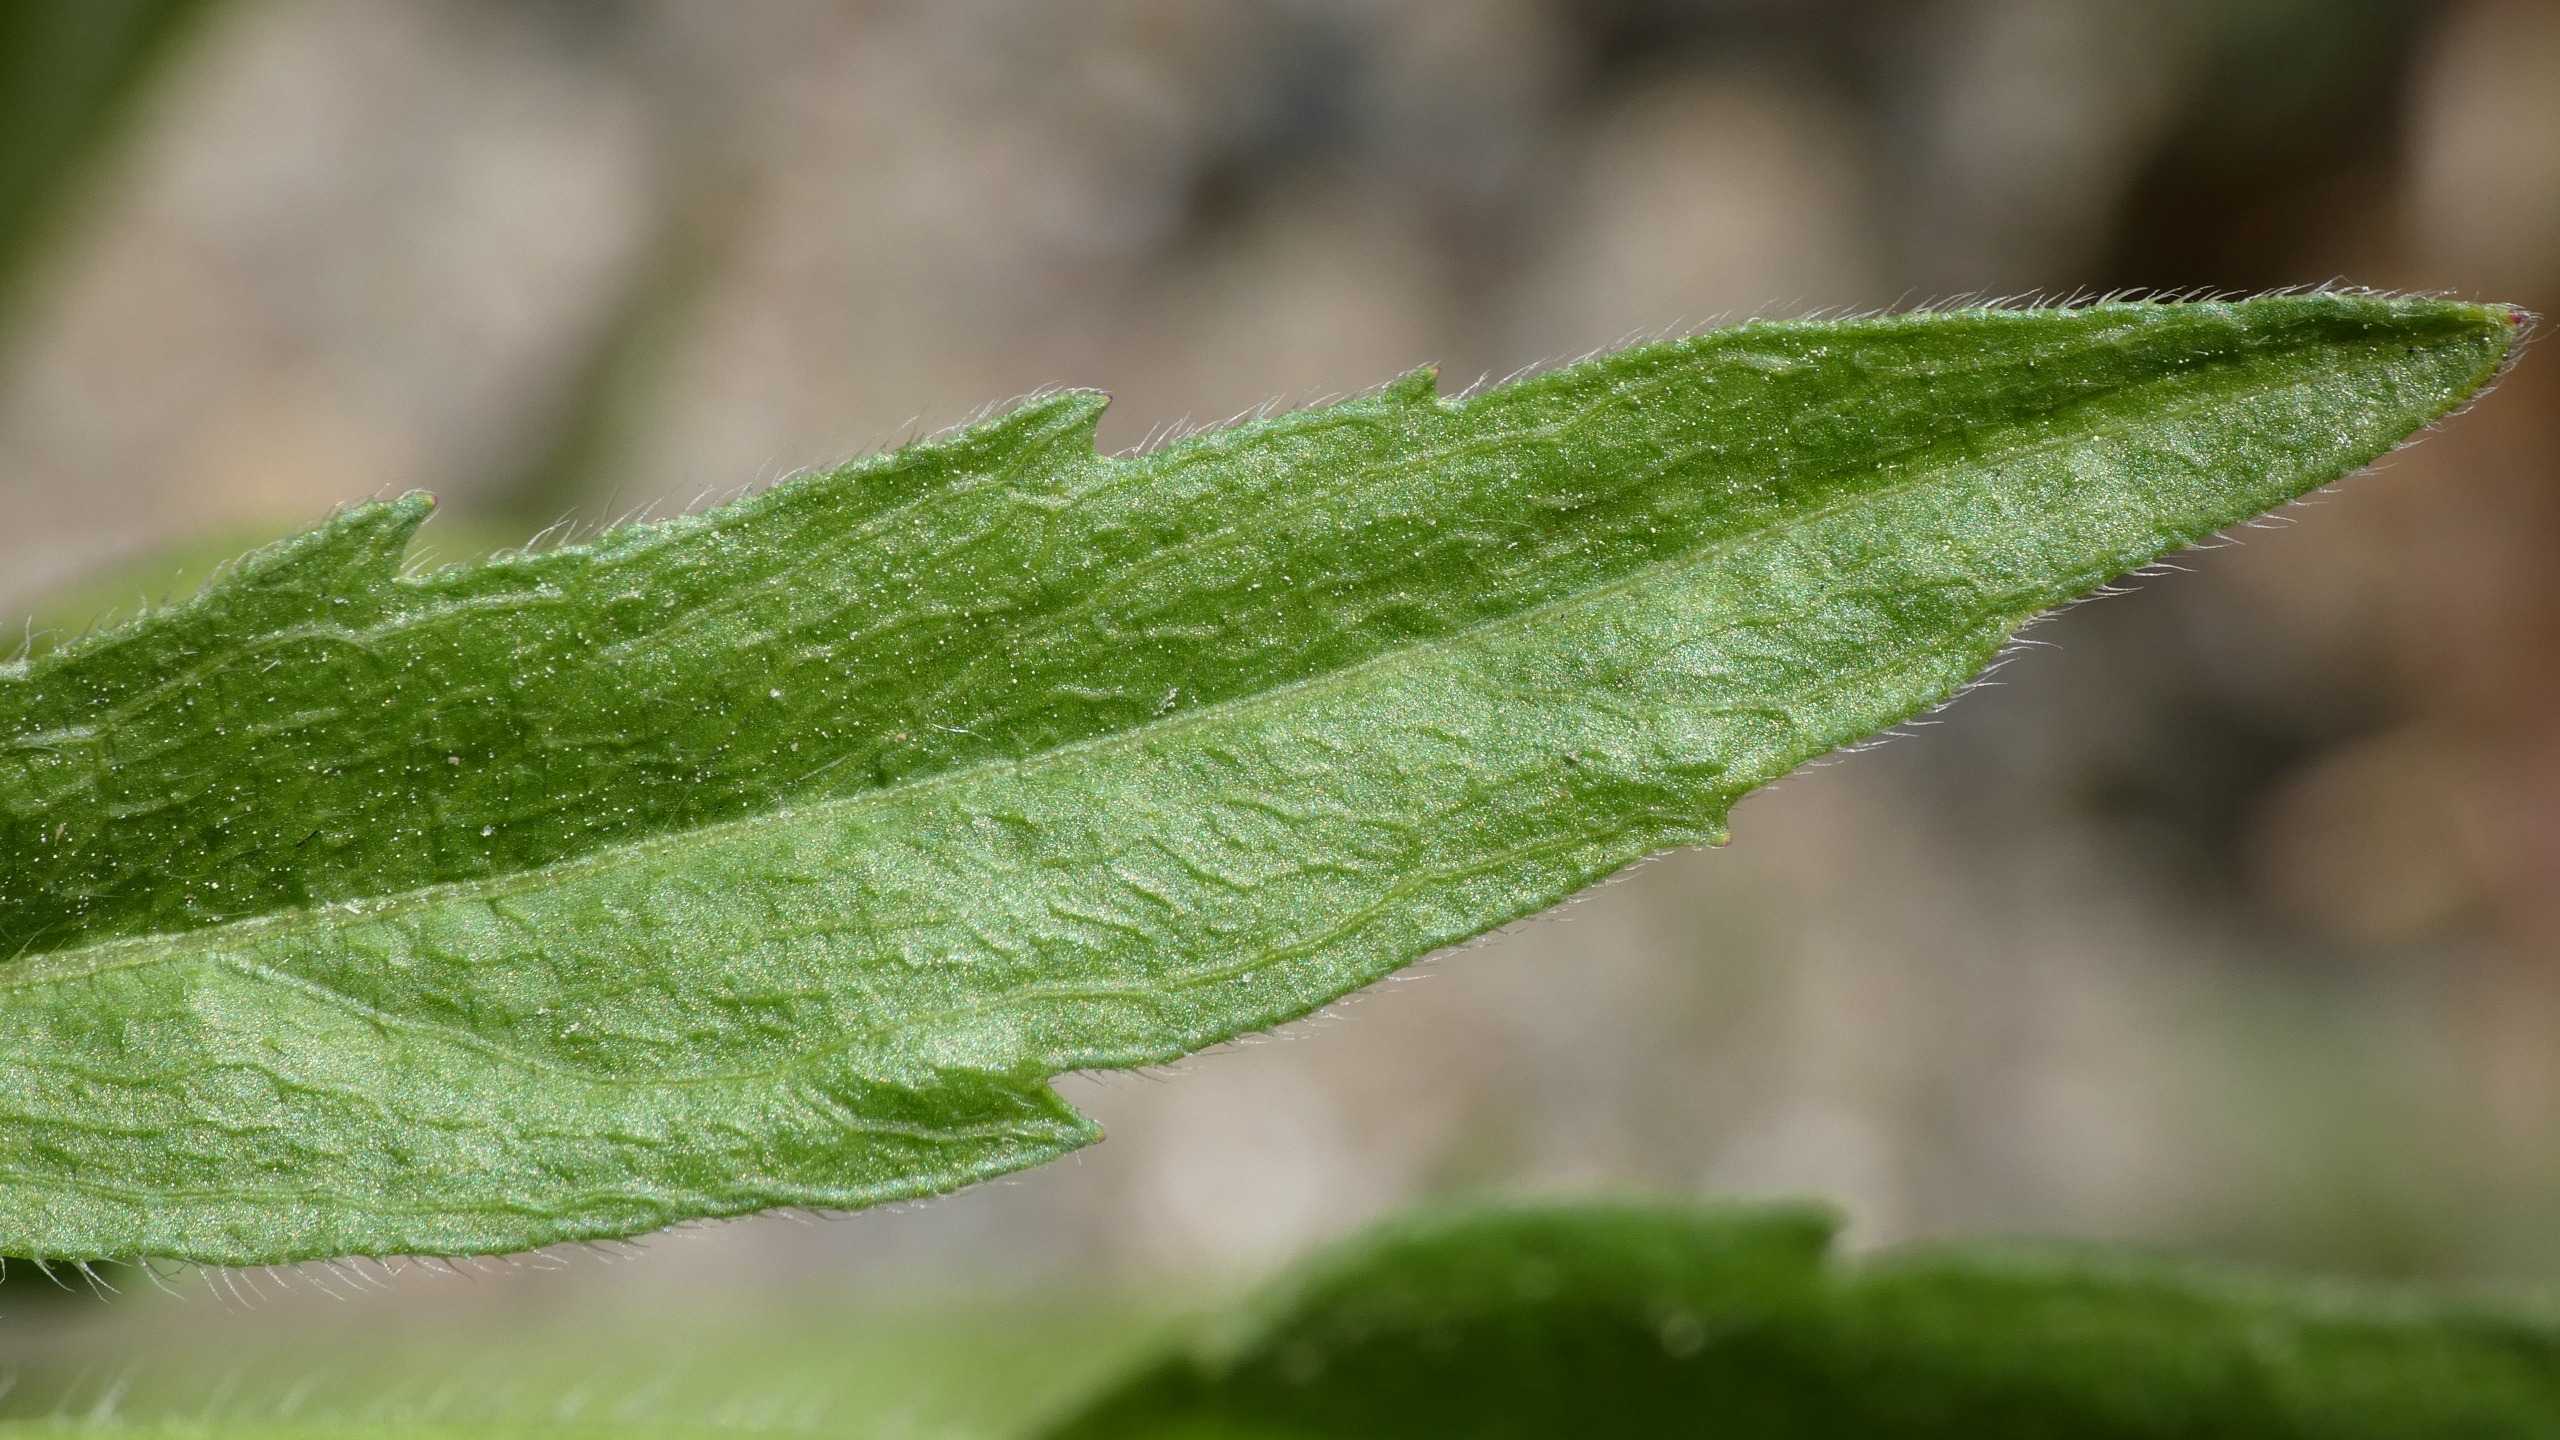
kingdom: Plantae
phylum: Tracheophyta
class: Magnoliopsida
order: Asterales
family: Asteraceae
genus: Erigeron
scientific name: Erigeron canadensis
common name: Kanadisk bakkestjerne
